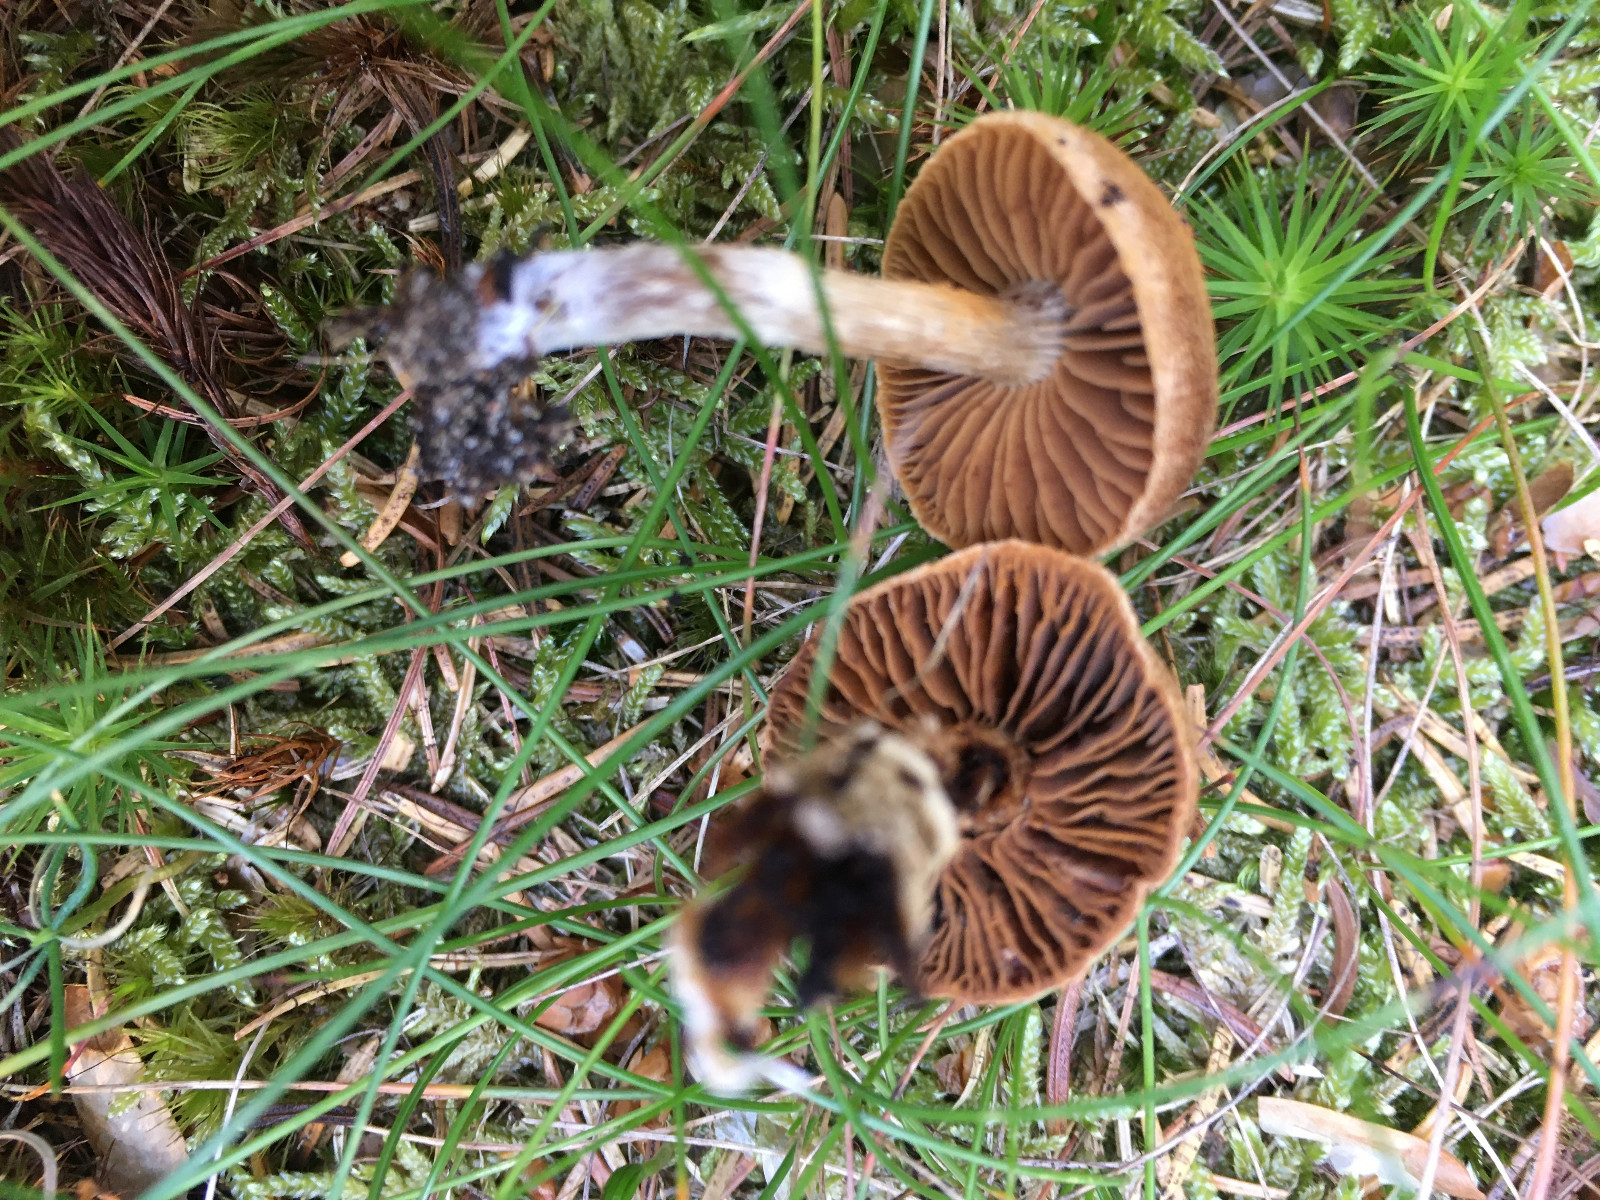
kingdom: Fungi
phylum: Basidiomycota
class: Agaricomycetes
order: Agaricales
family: Cortinariaceae
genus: Cortinarius
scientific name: Cortinarius
